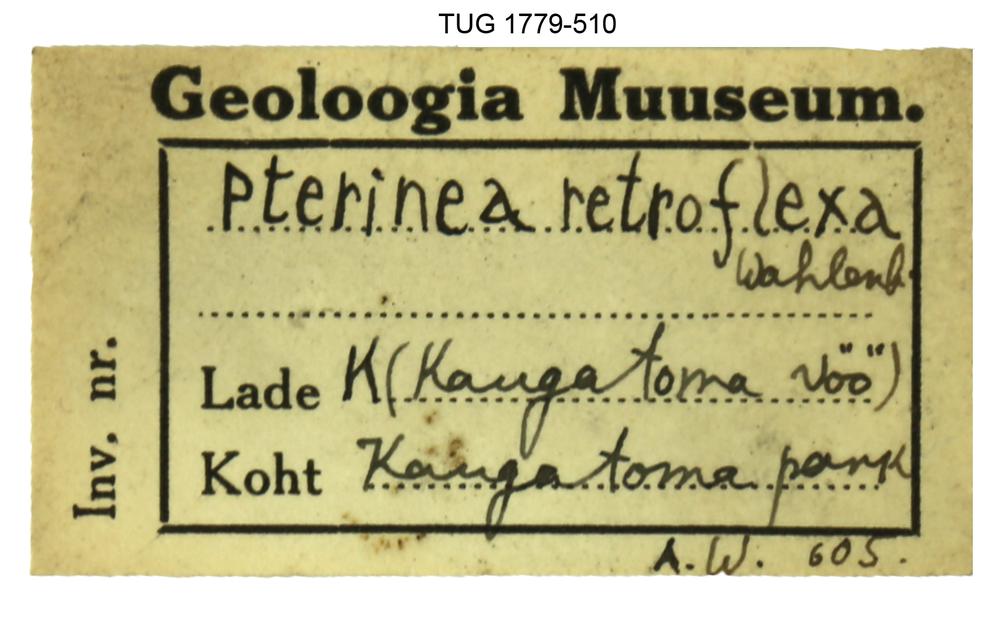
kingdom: Animalia
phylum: Mollusca
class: Bivalvia
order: Ostreida
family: Pterineidae
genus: Pterinea
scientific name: Pterinea
